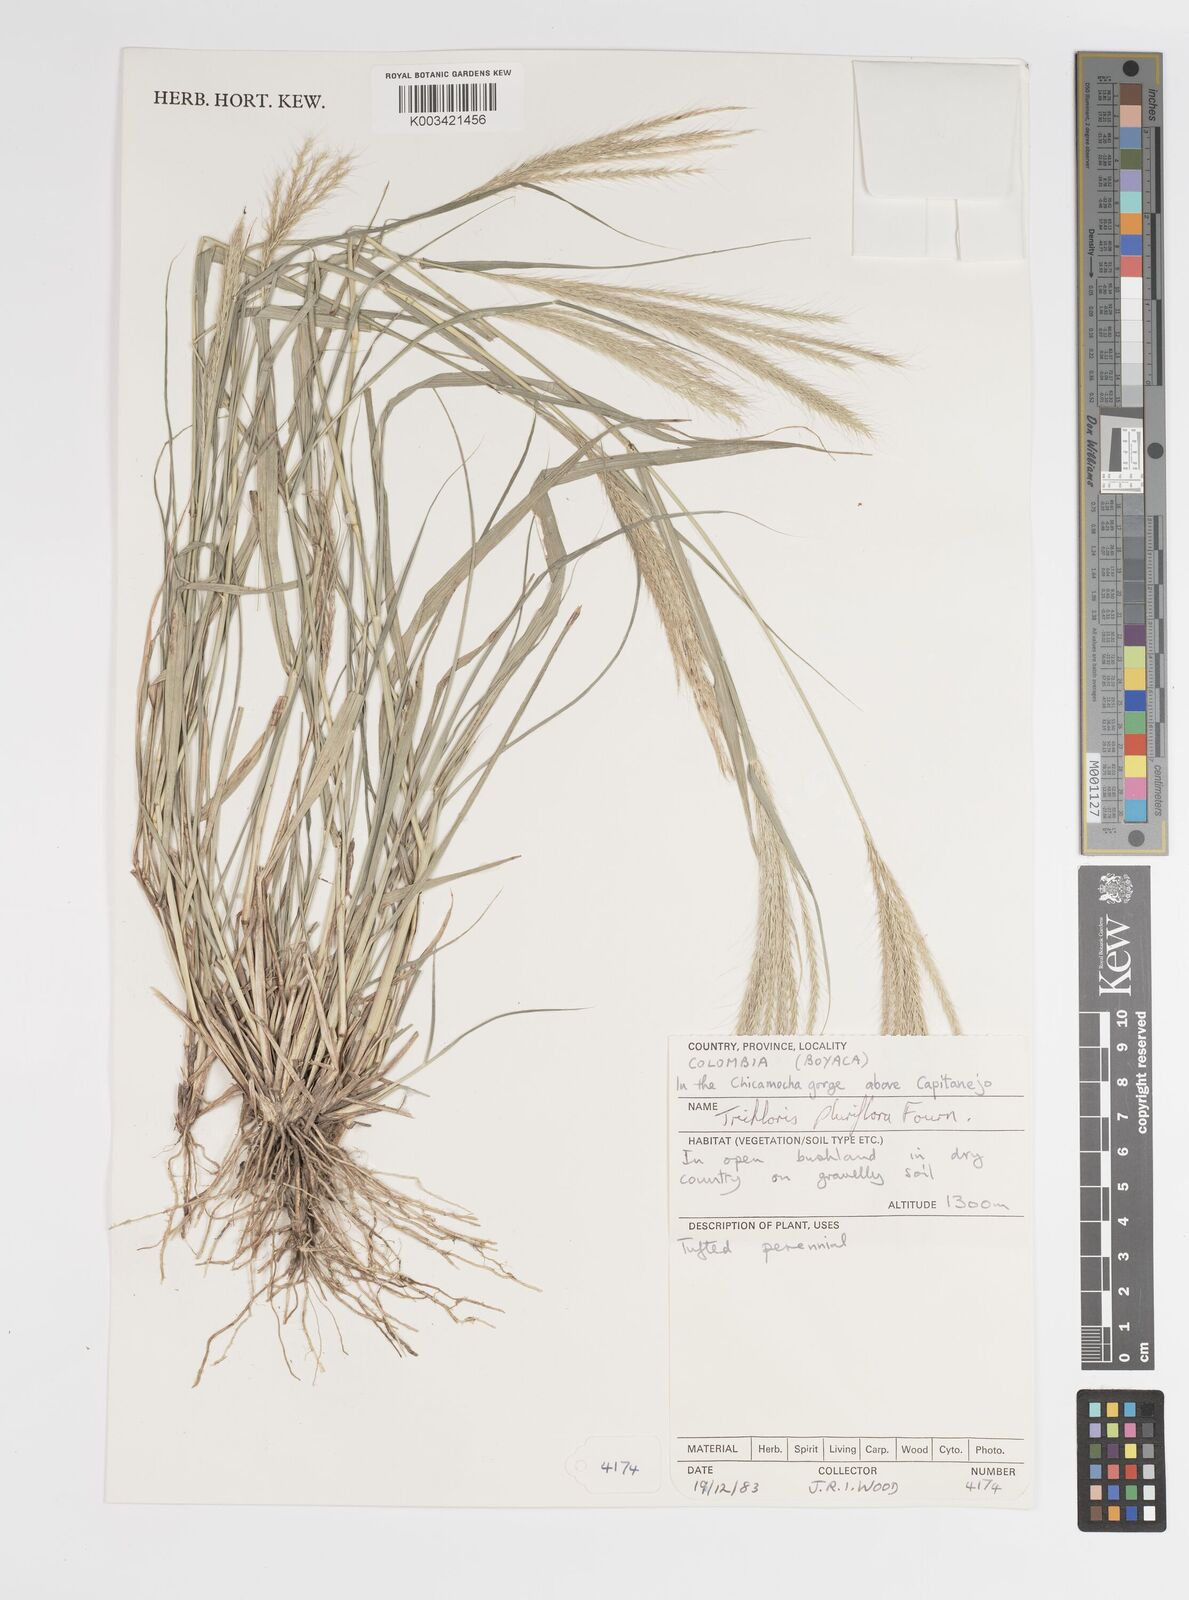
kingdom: Plantae
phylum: Tracheophyta
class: Liliopsida
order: Poales
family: Poaceae
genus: Leptochloa
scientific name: Leptochloa pluriflora
